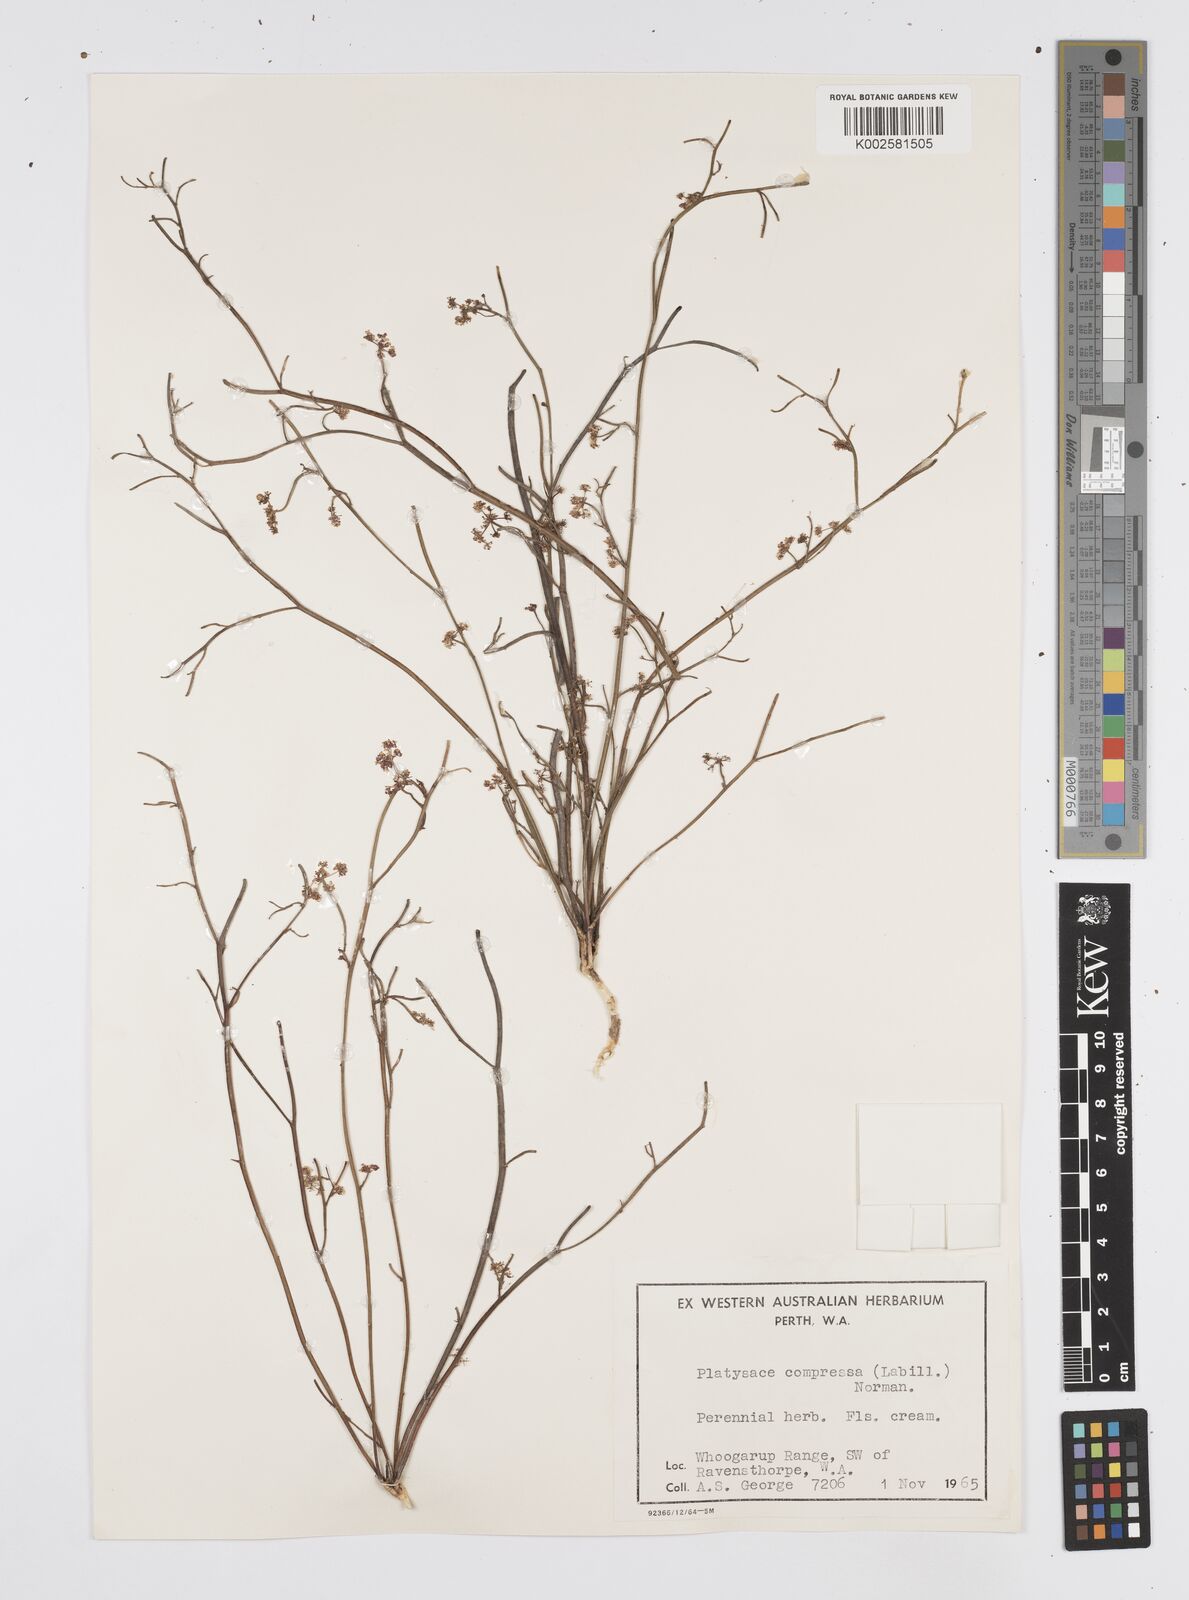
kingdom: Plantae
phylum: Tracheophyta
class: Magnoliopsida
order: Apiales
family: Apiaceae
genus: Centella
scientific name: Centella
